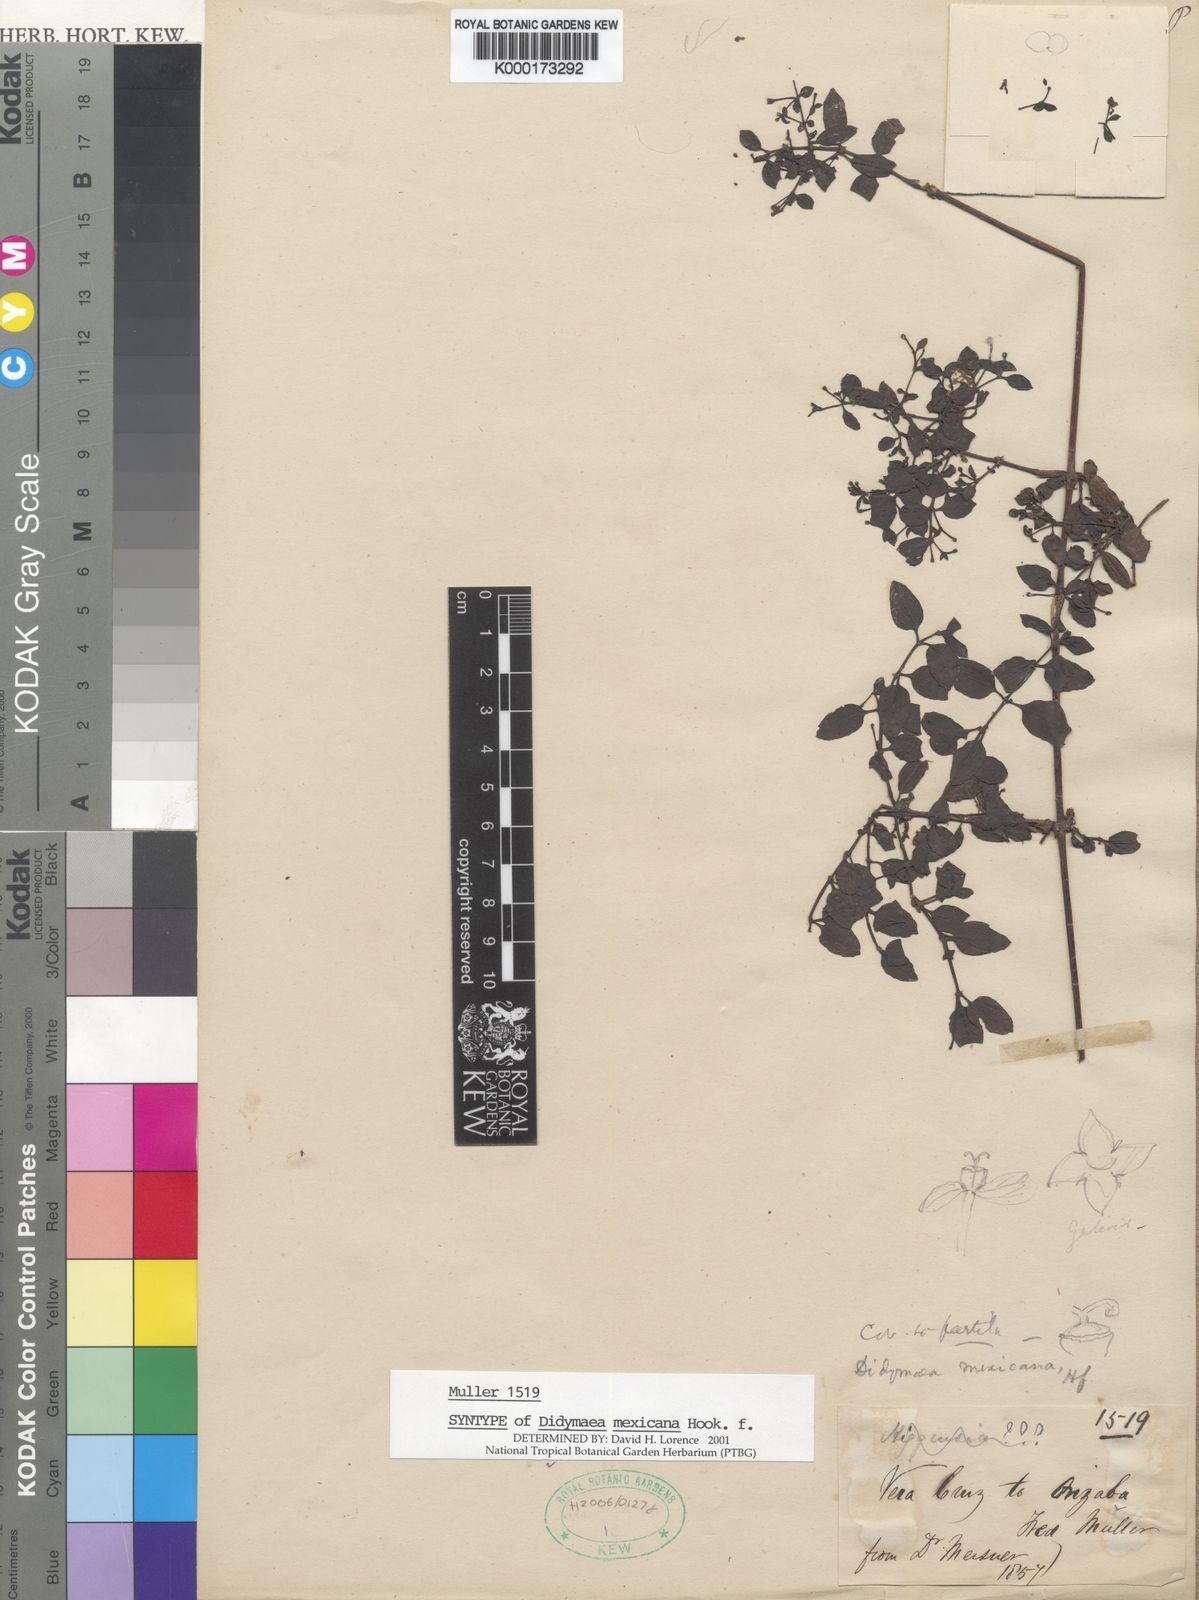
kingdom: Plantae
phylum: Tracheophyta
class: Magnoliopsida
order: Gentianales
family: Rubiaceae
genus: Didymaea
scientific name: Didymaea alsinoides
